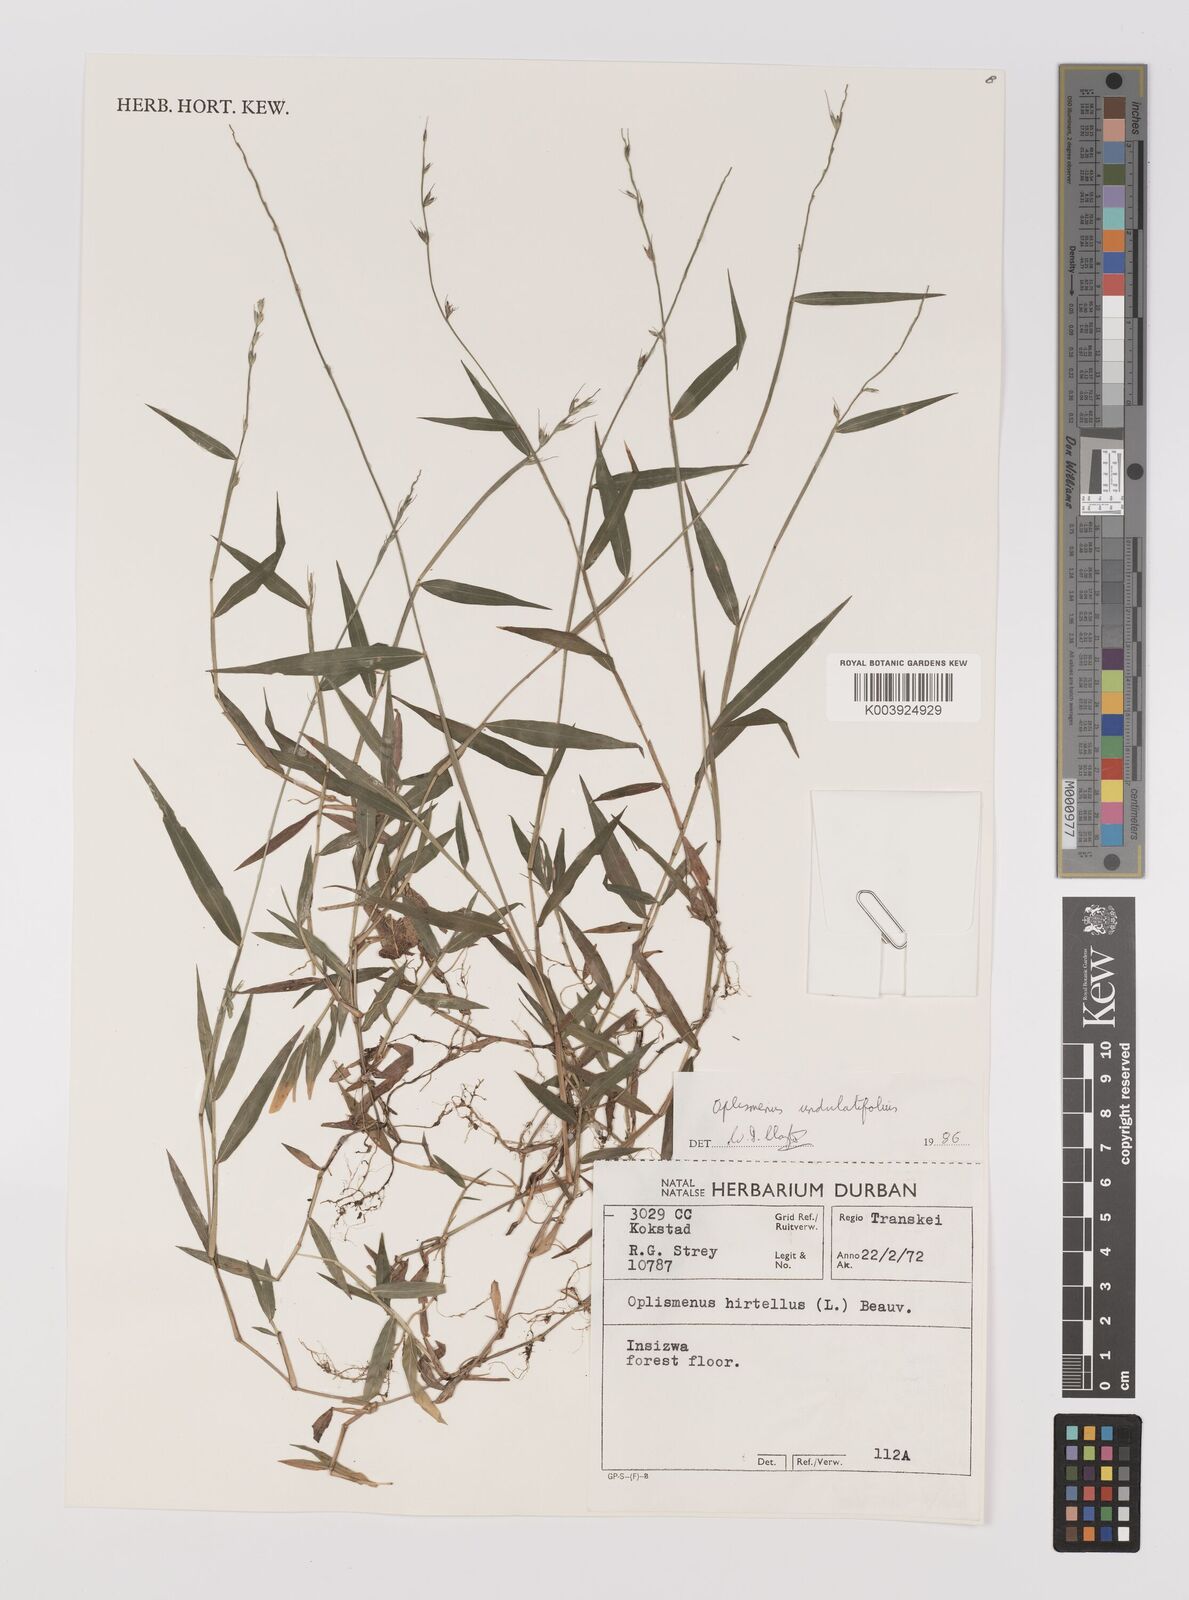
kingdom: Plantae
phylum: Tracheophyta
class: Liliopsida
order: Poales
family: Poaceae
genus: Oplismenus
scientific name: Oplismenus undulatifolius
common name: Wavyleaf basketgrass
